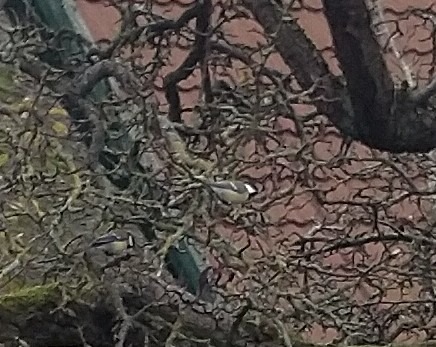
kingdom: Animalia
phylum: Chordata
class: Aves
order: Passeriformes
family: Paridae
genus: Parus
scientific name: Parus major
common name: Musvit
